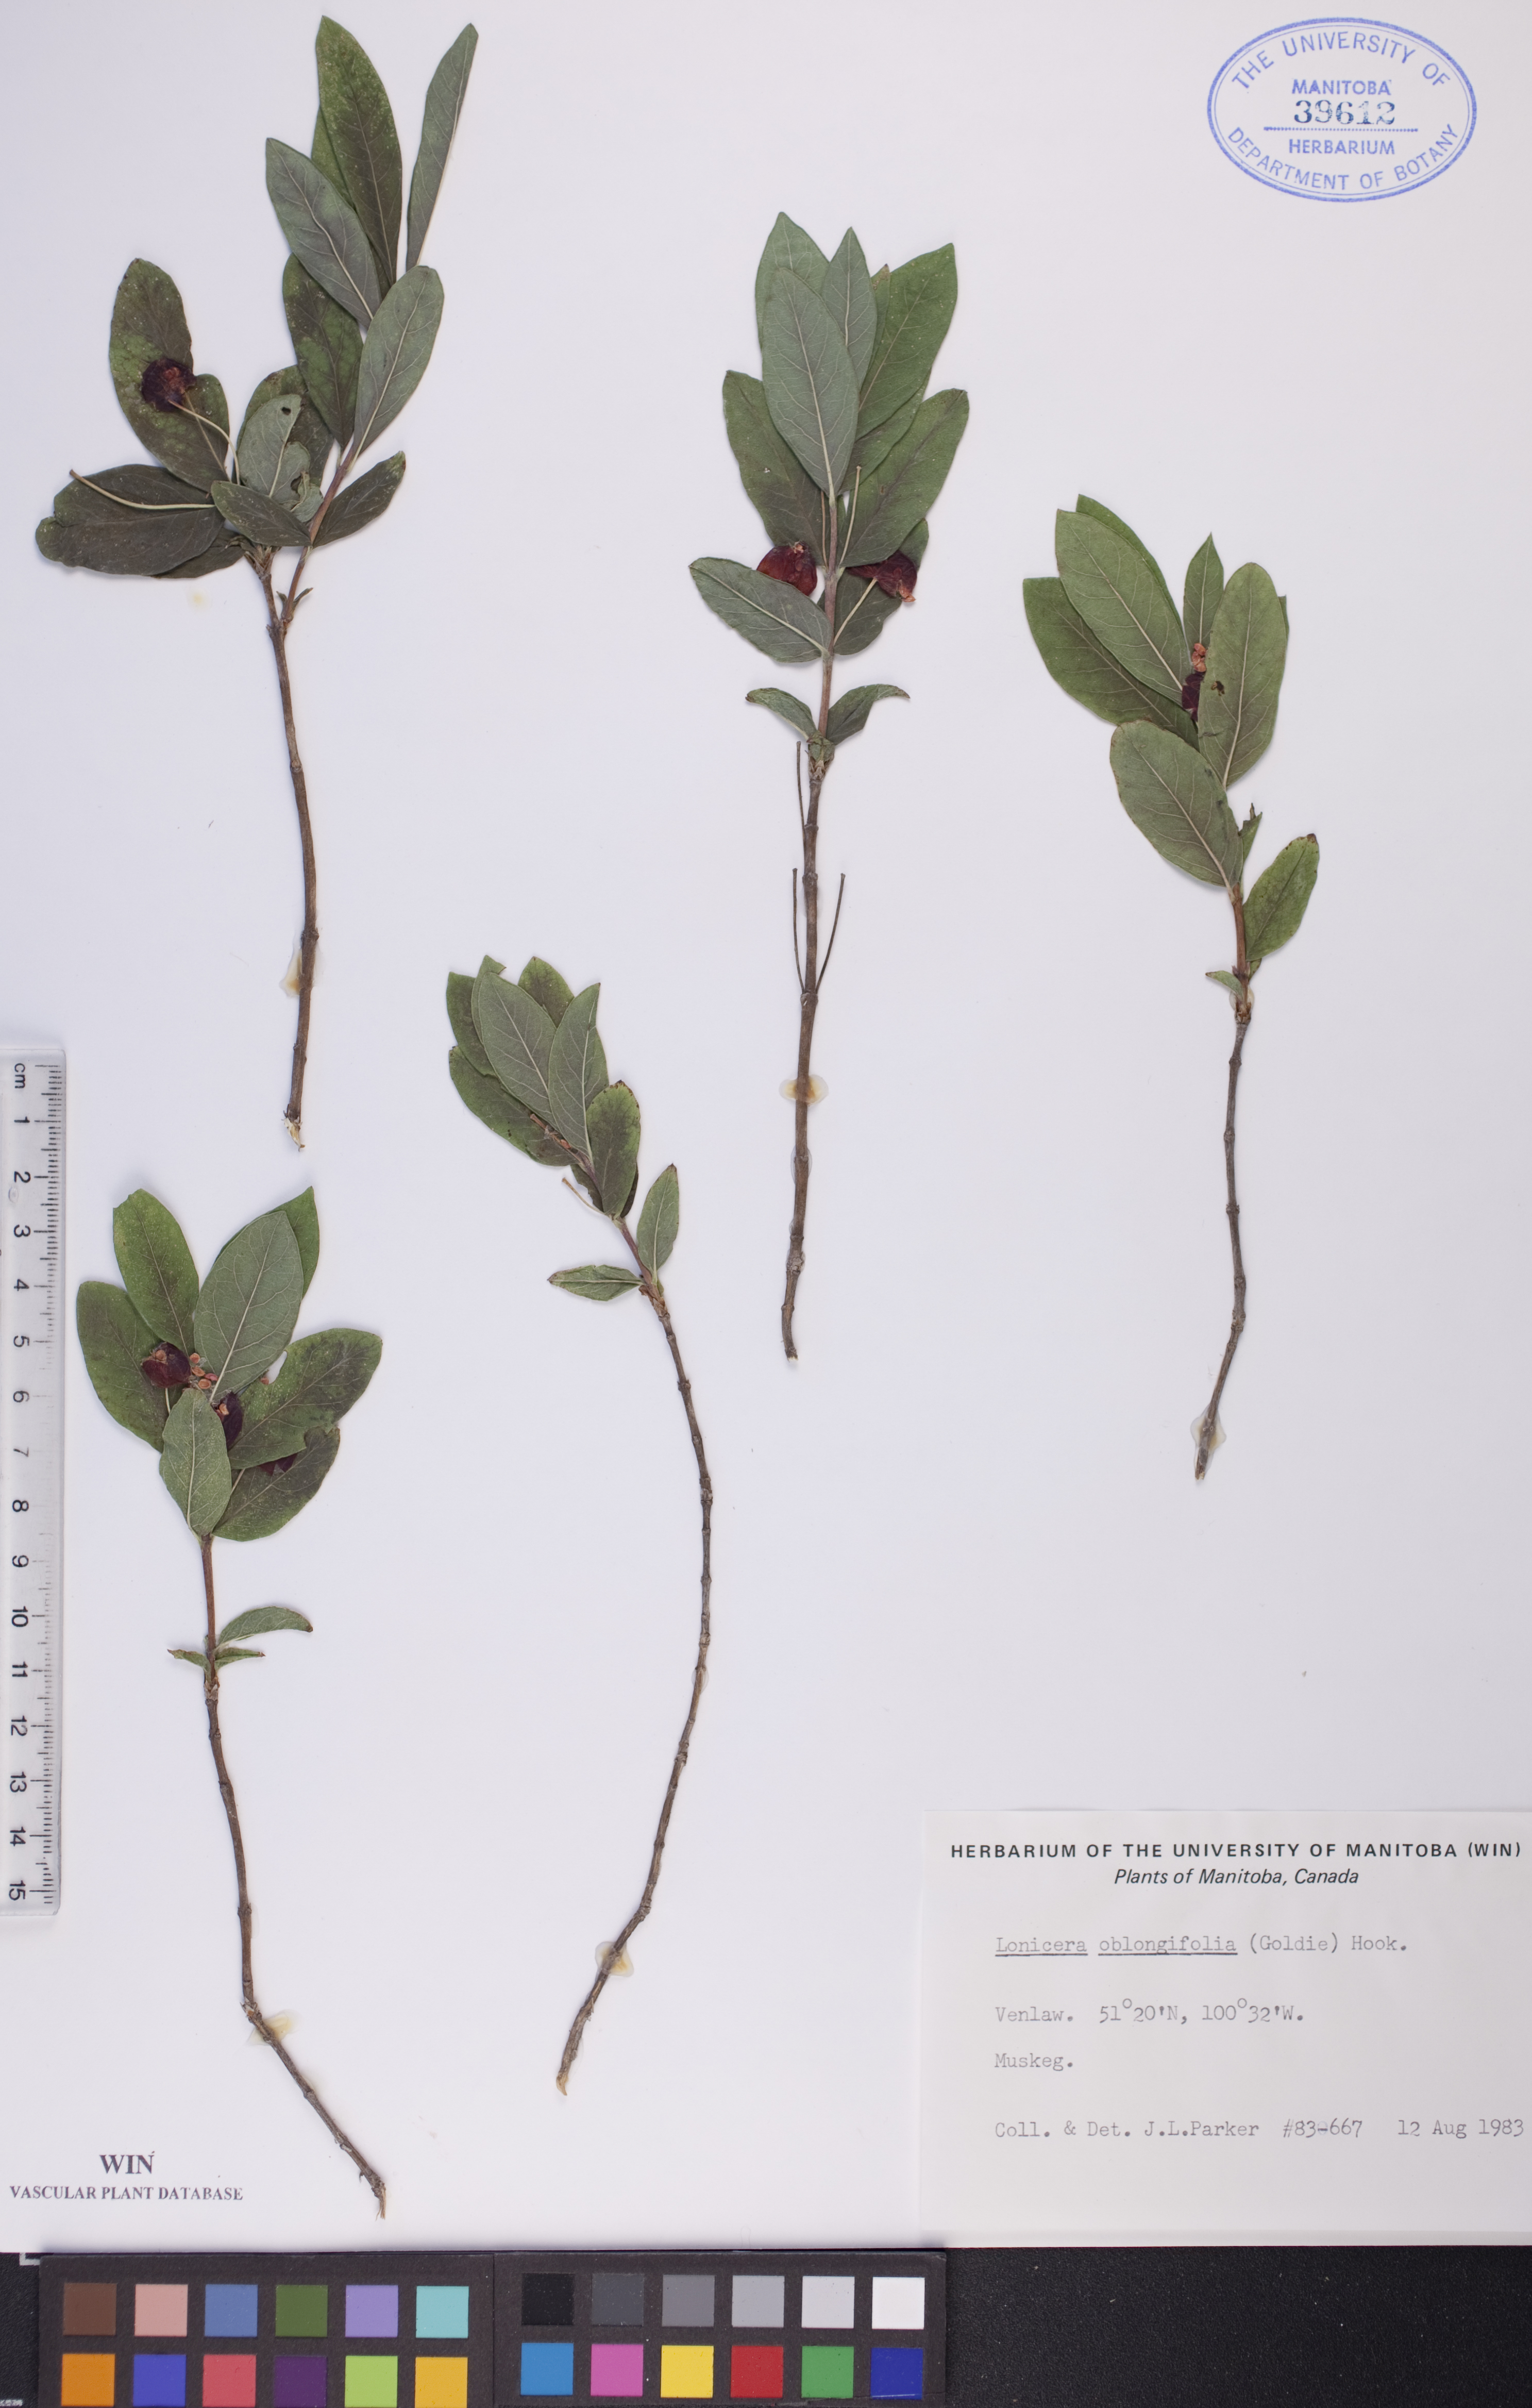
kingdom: Plantae
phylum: Tracheophyta
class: Magnoliopsida
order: Dipsacales
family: Caprifoliaceae
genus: Lonicera
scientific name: Lonicera oblongifolia
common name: Swamp fly honeysuckle
